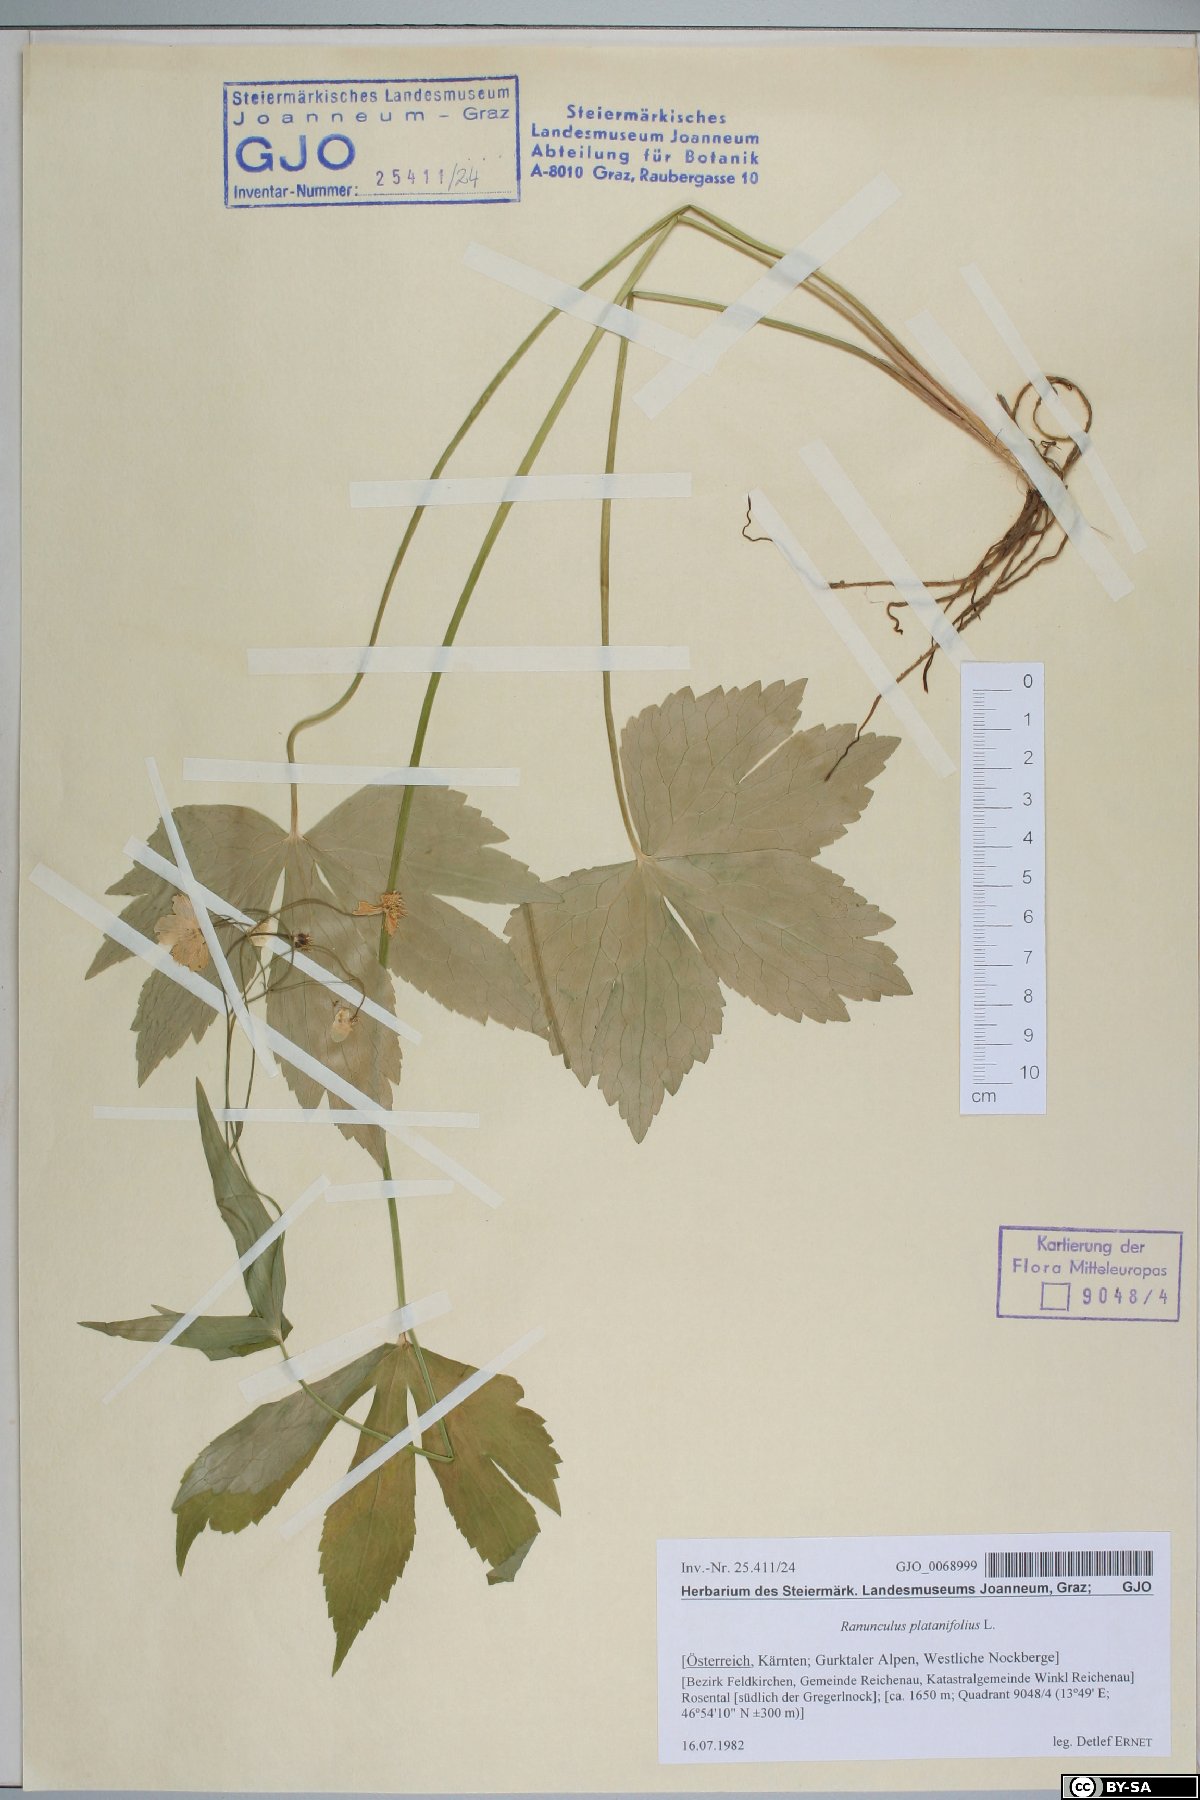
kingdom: Plantae
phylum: Tracheophyta
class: Magnoliopsida
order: Ranunculales
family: Ranunculaceae
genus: Ranunculus
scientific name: Ranunculus platanifolius
